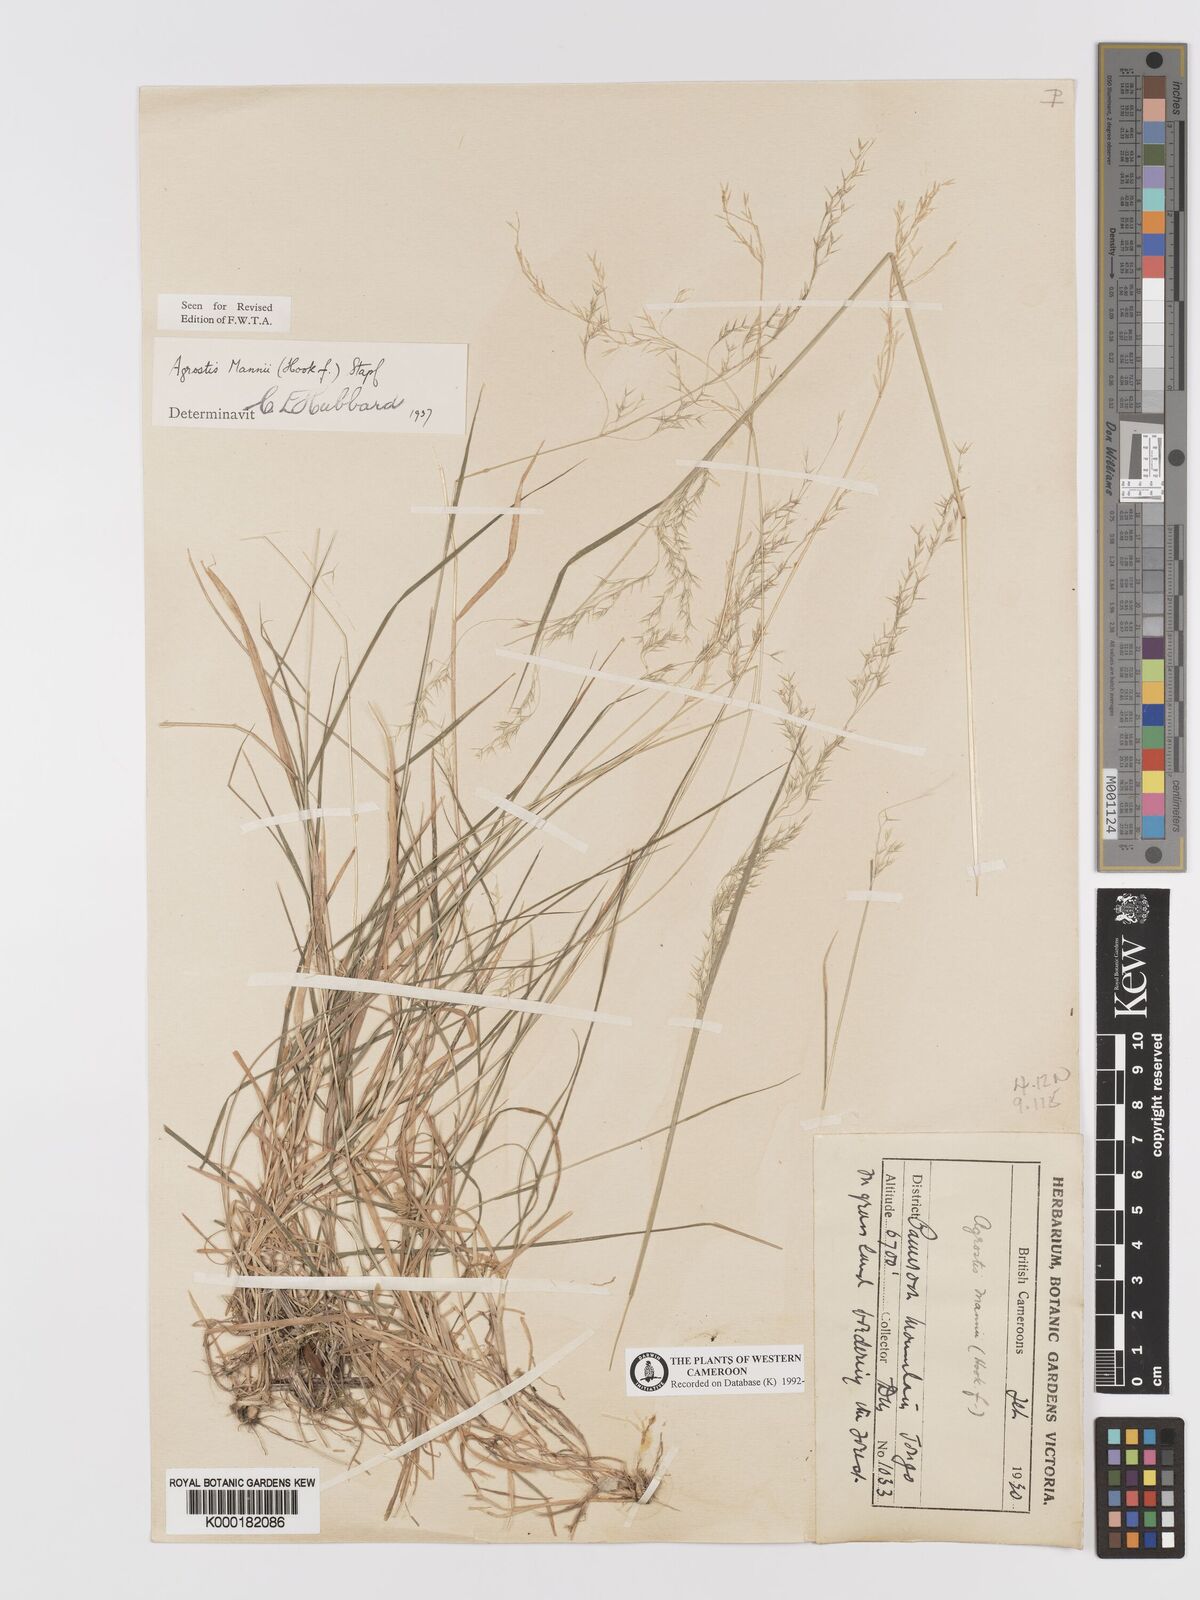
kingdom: Plantae
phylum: Tracheophyta
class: Liliopsida
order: Poales
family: Poaceae
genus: Agrostis
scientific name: Agrostis mannii
